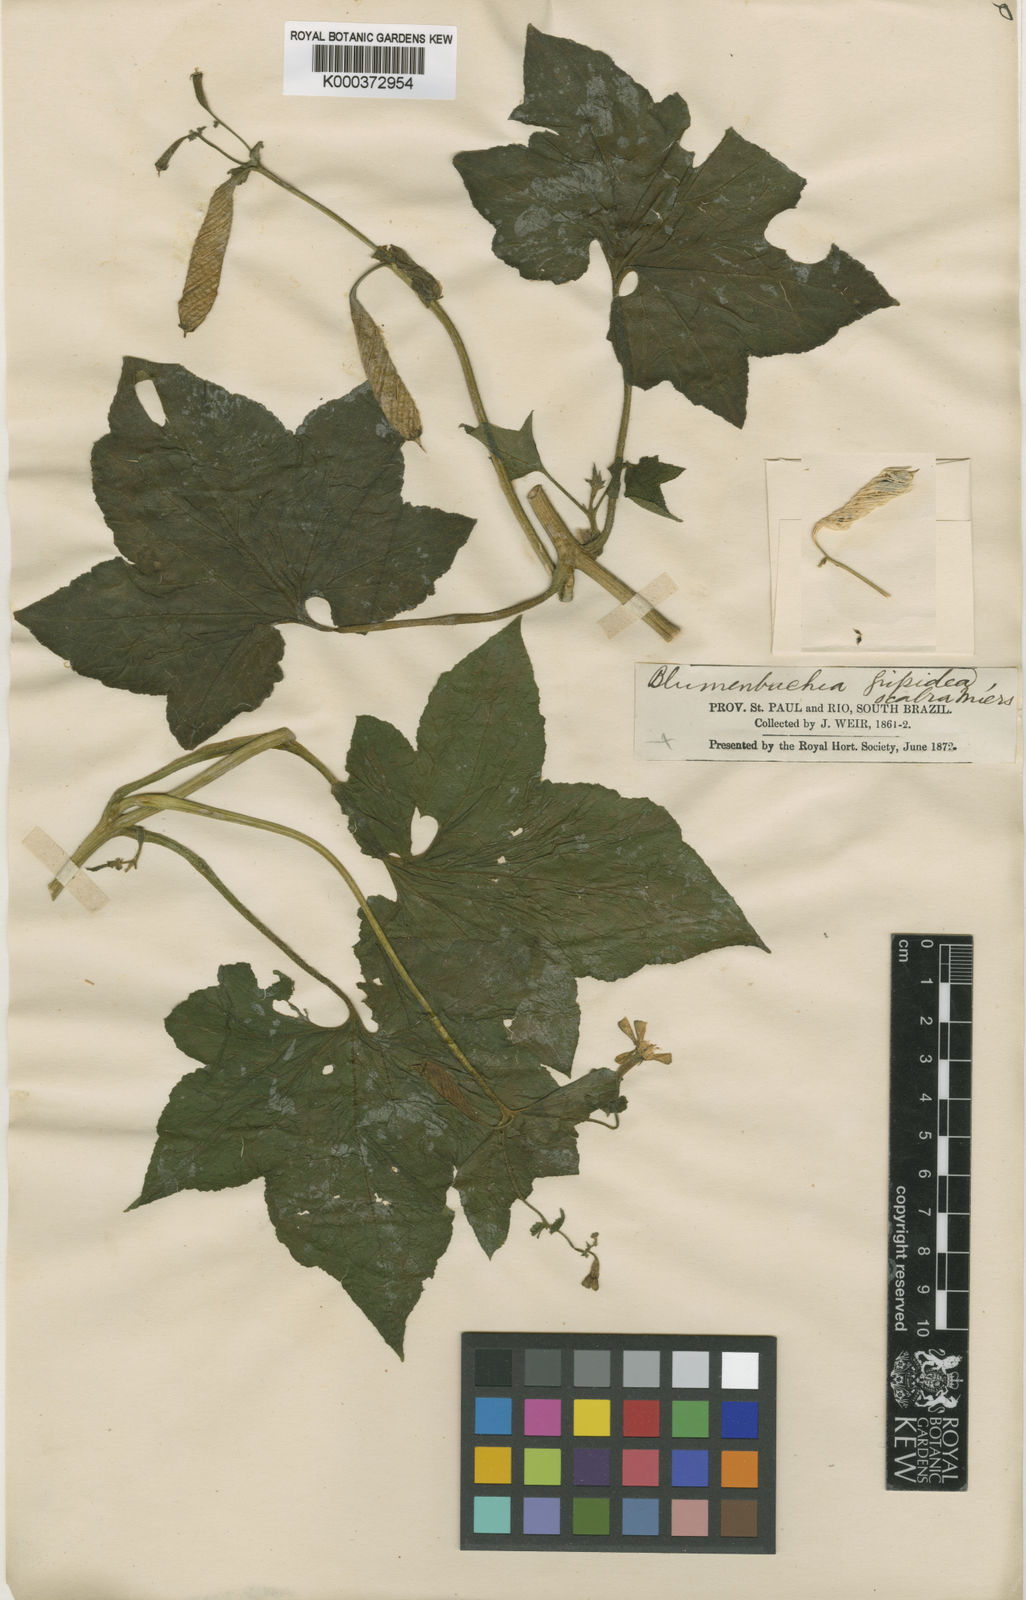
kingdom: Plantae
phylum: Tracheophyta
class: Magnoliopsida
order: Cornales
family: Loasaceae
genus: Blumenbachia
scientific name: Blumenbachia scabra
